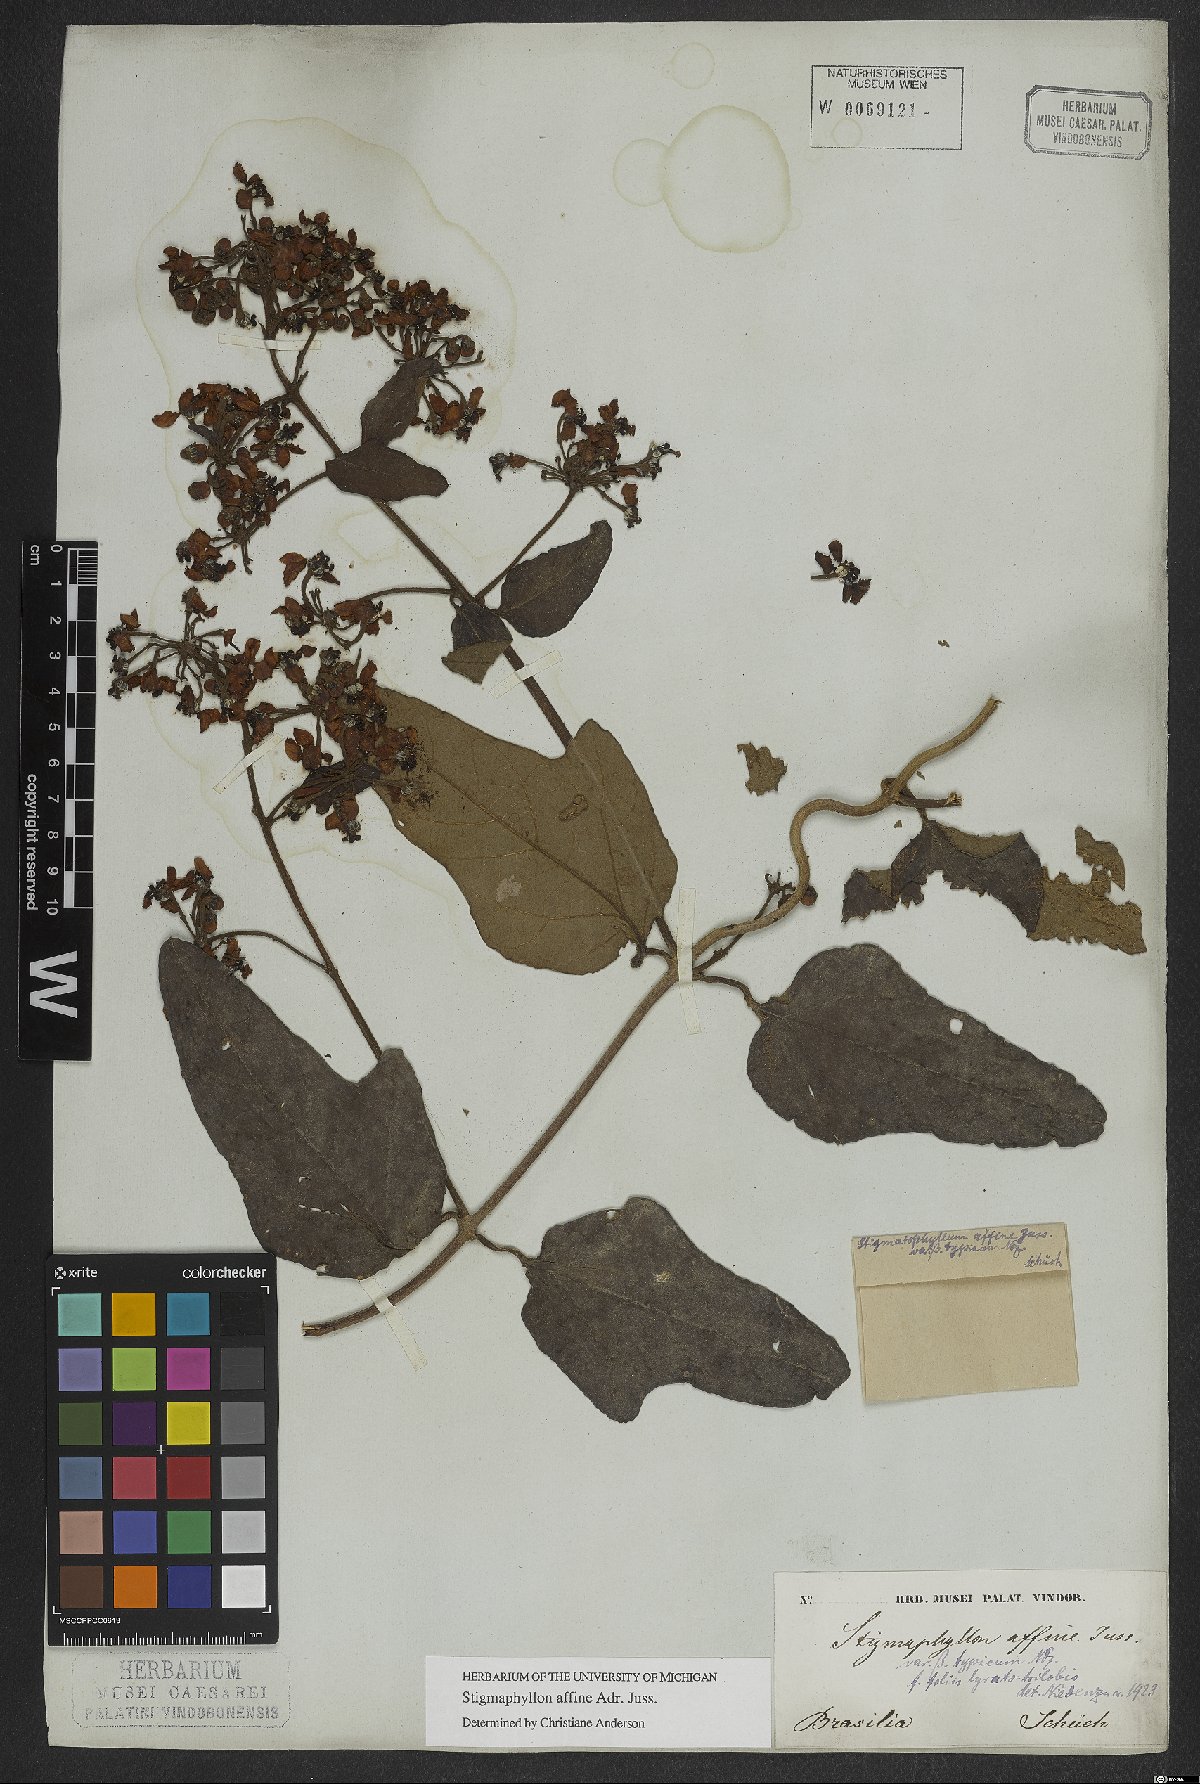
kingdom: Plantae
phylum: Tracheophyta
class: Magnoliopsida
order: Malpighiales
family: Malpighiaceae
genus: Stigmaphyllon
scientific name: Stigmaphyllon affine
